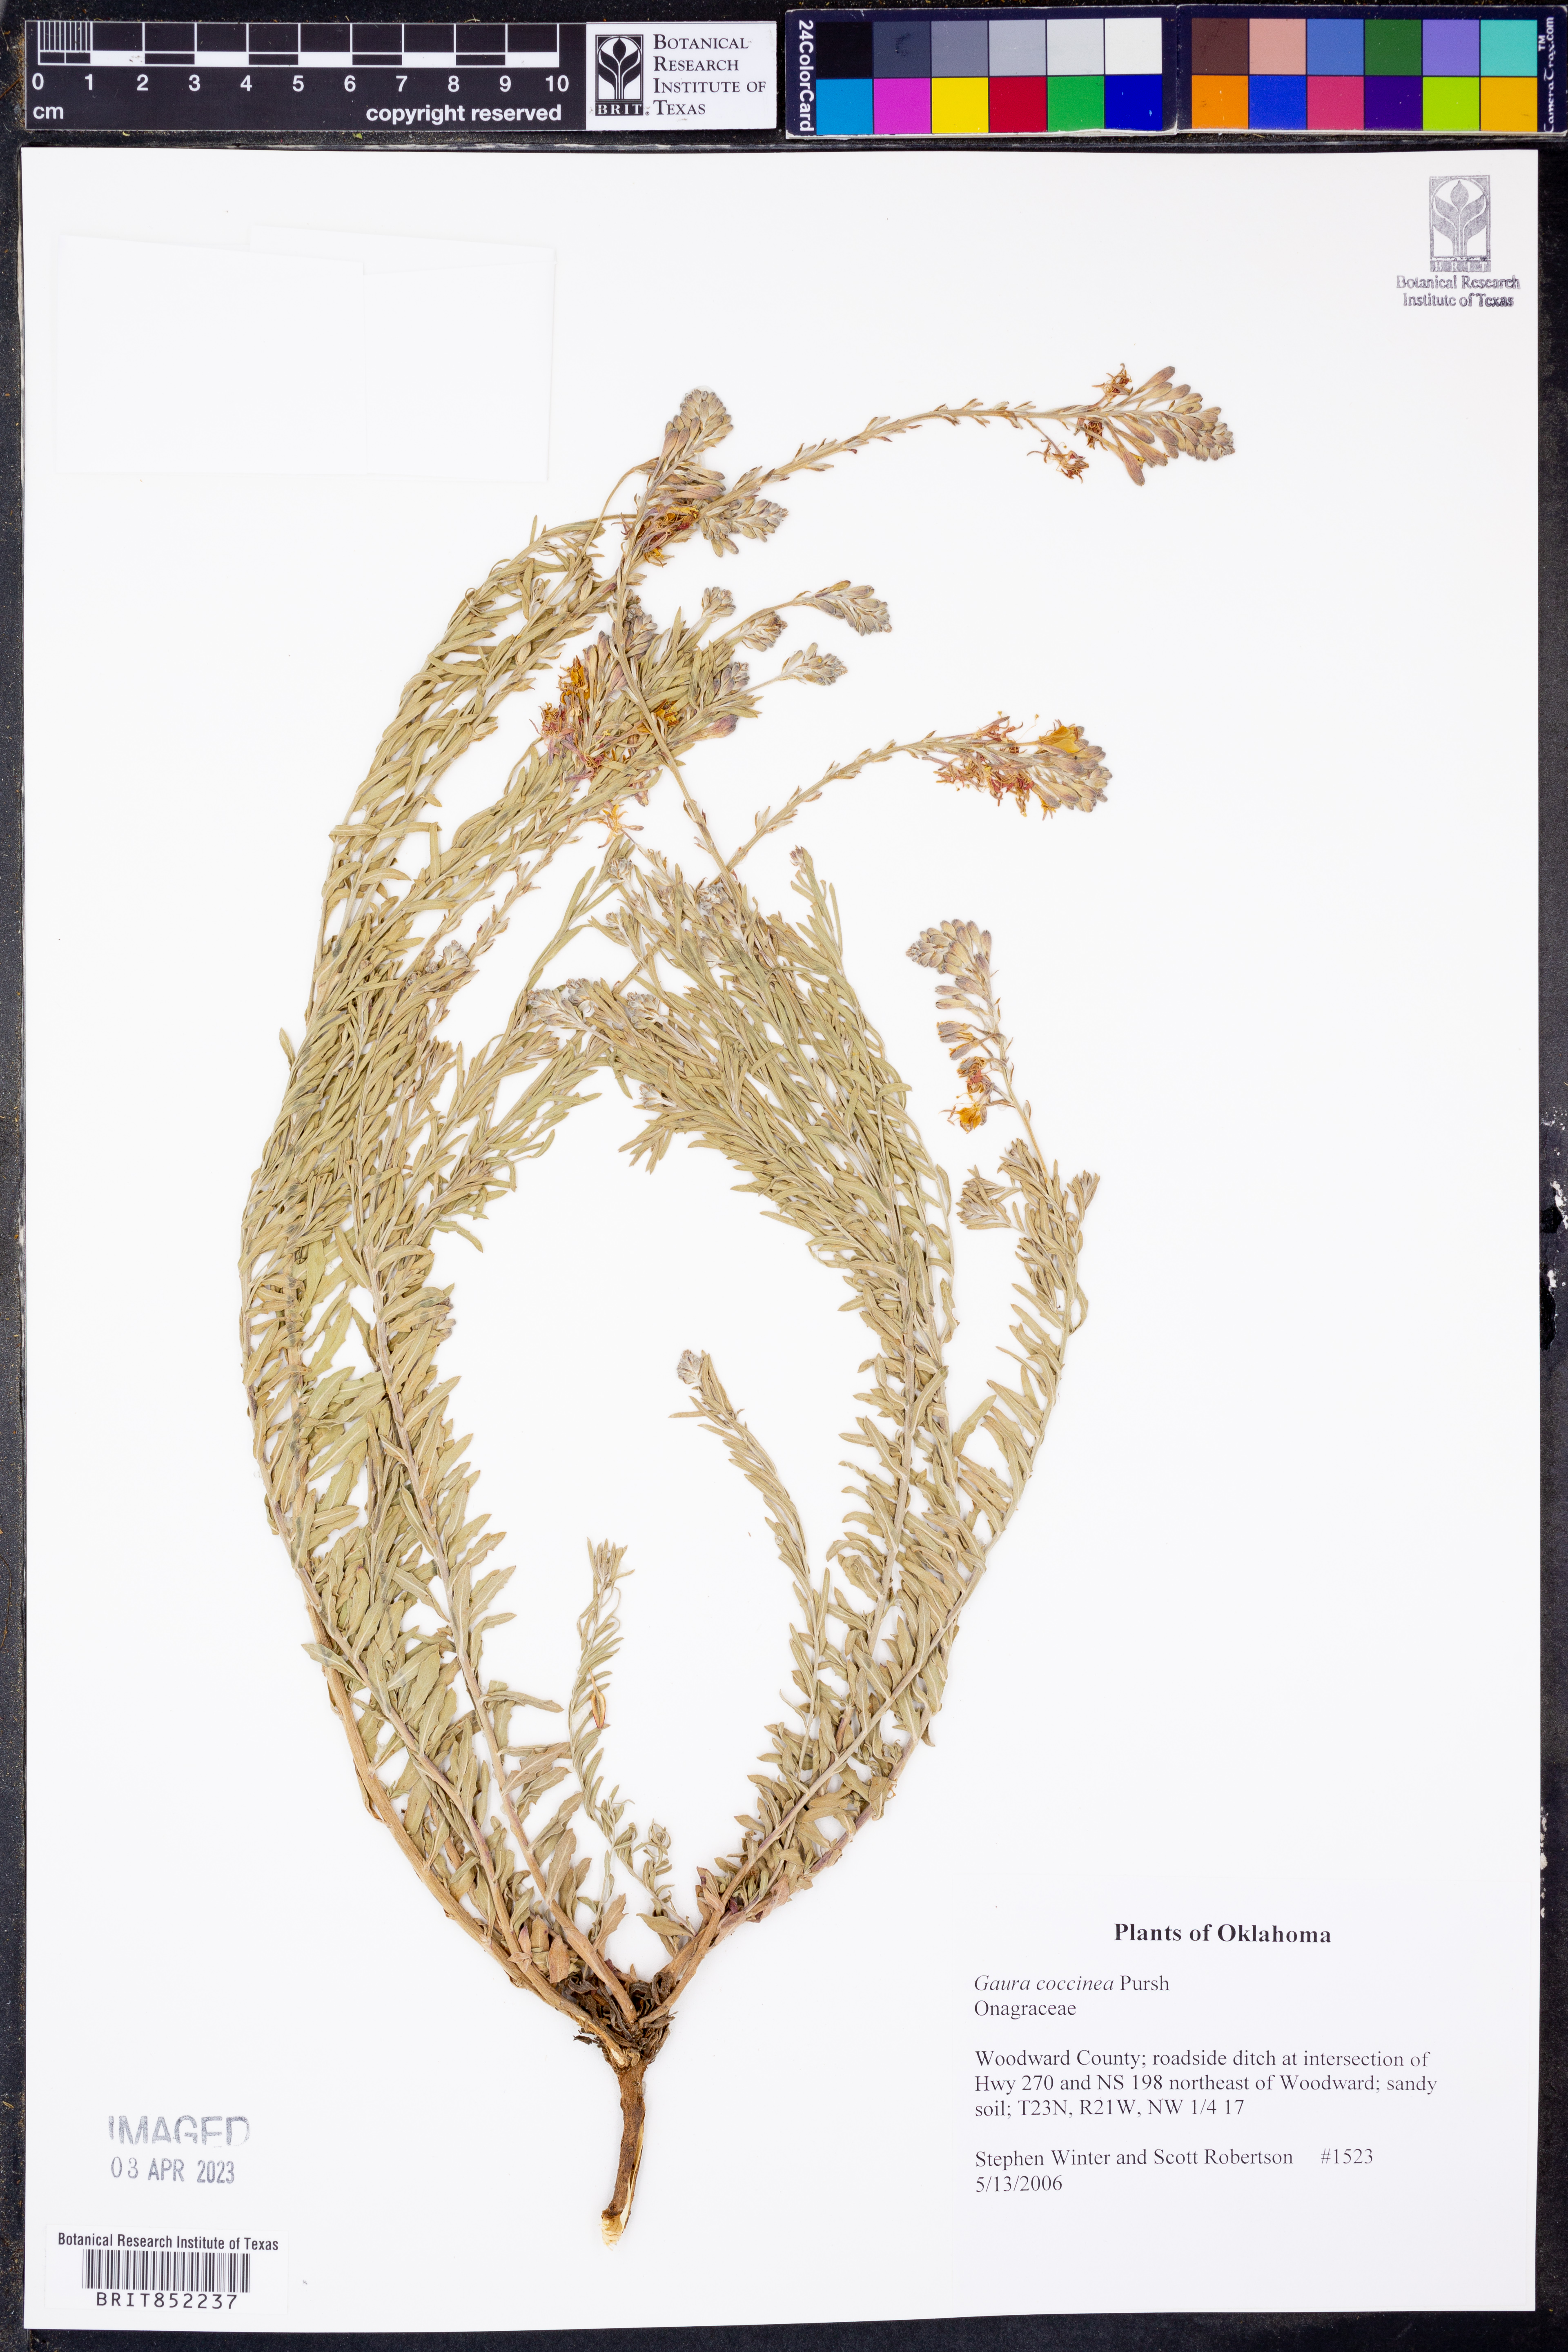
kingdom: Plantae
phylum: Tracheophyta
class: Magnoliopsida
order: Myrtales
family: Onagraceae
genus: Oenothera
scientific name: Oenothera suffrutescens
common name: Scarlet beeblossom
